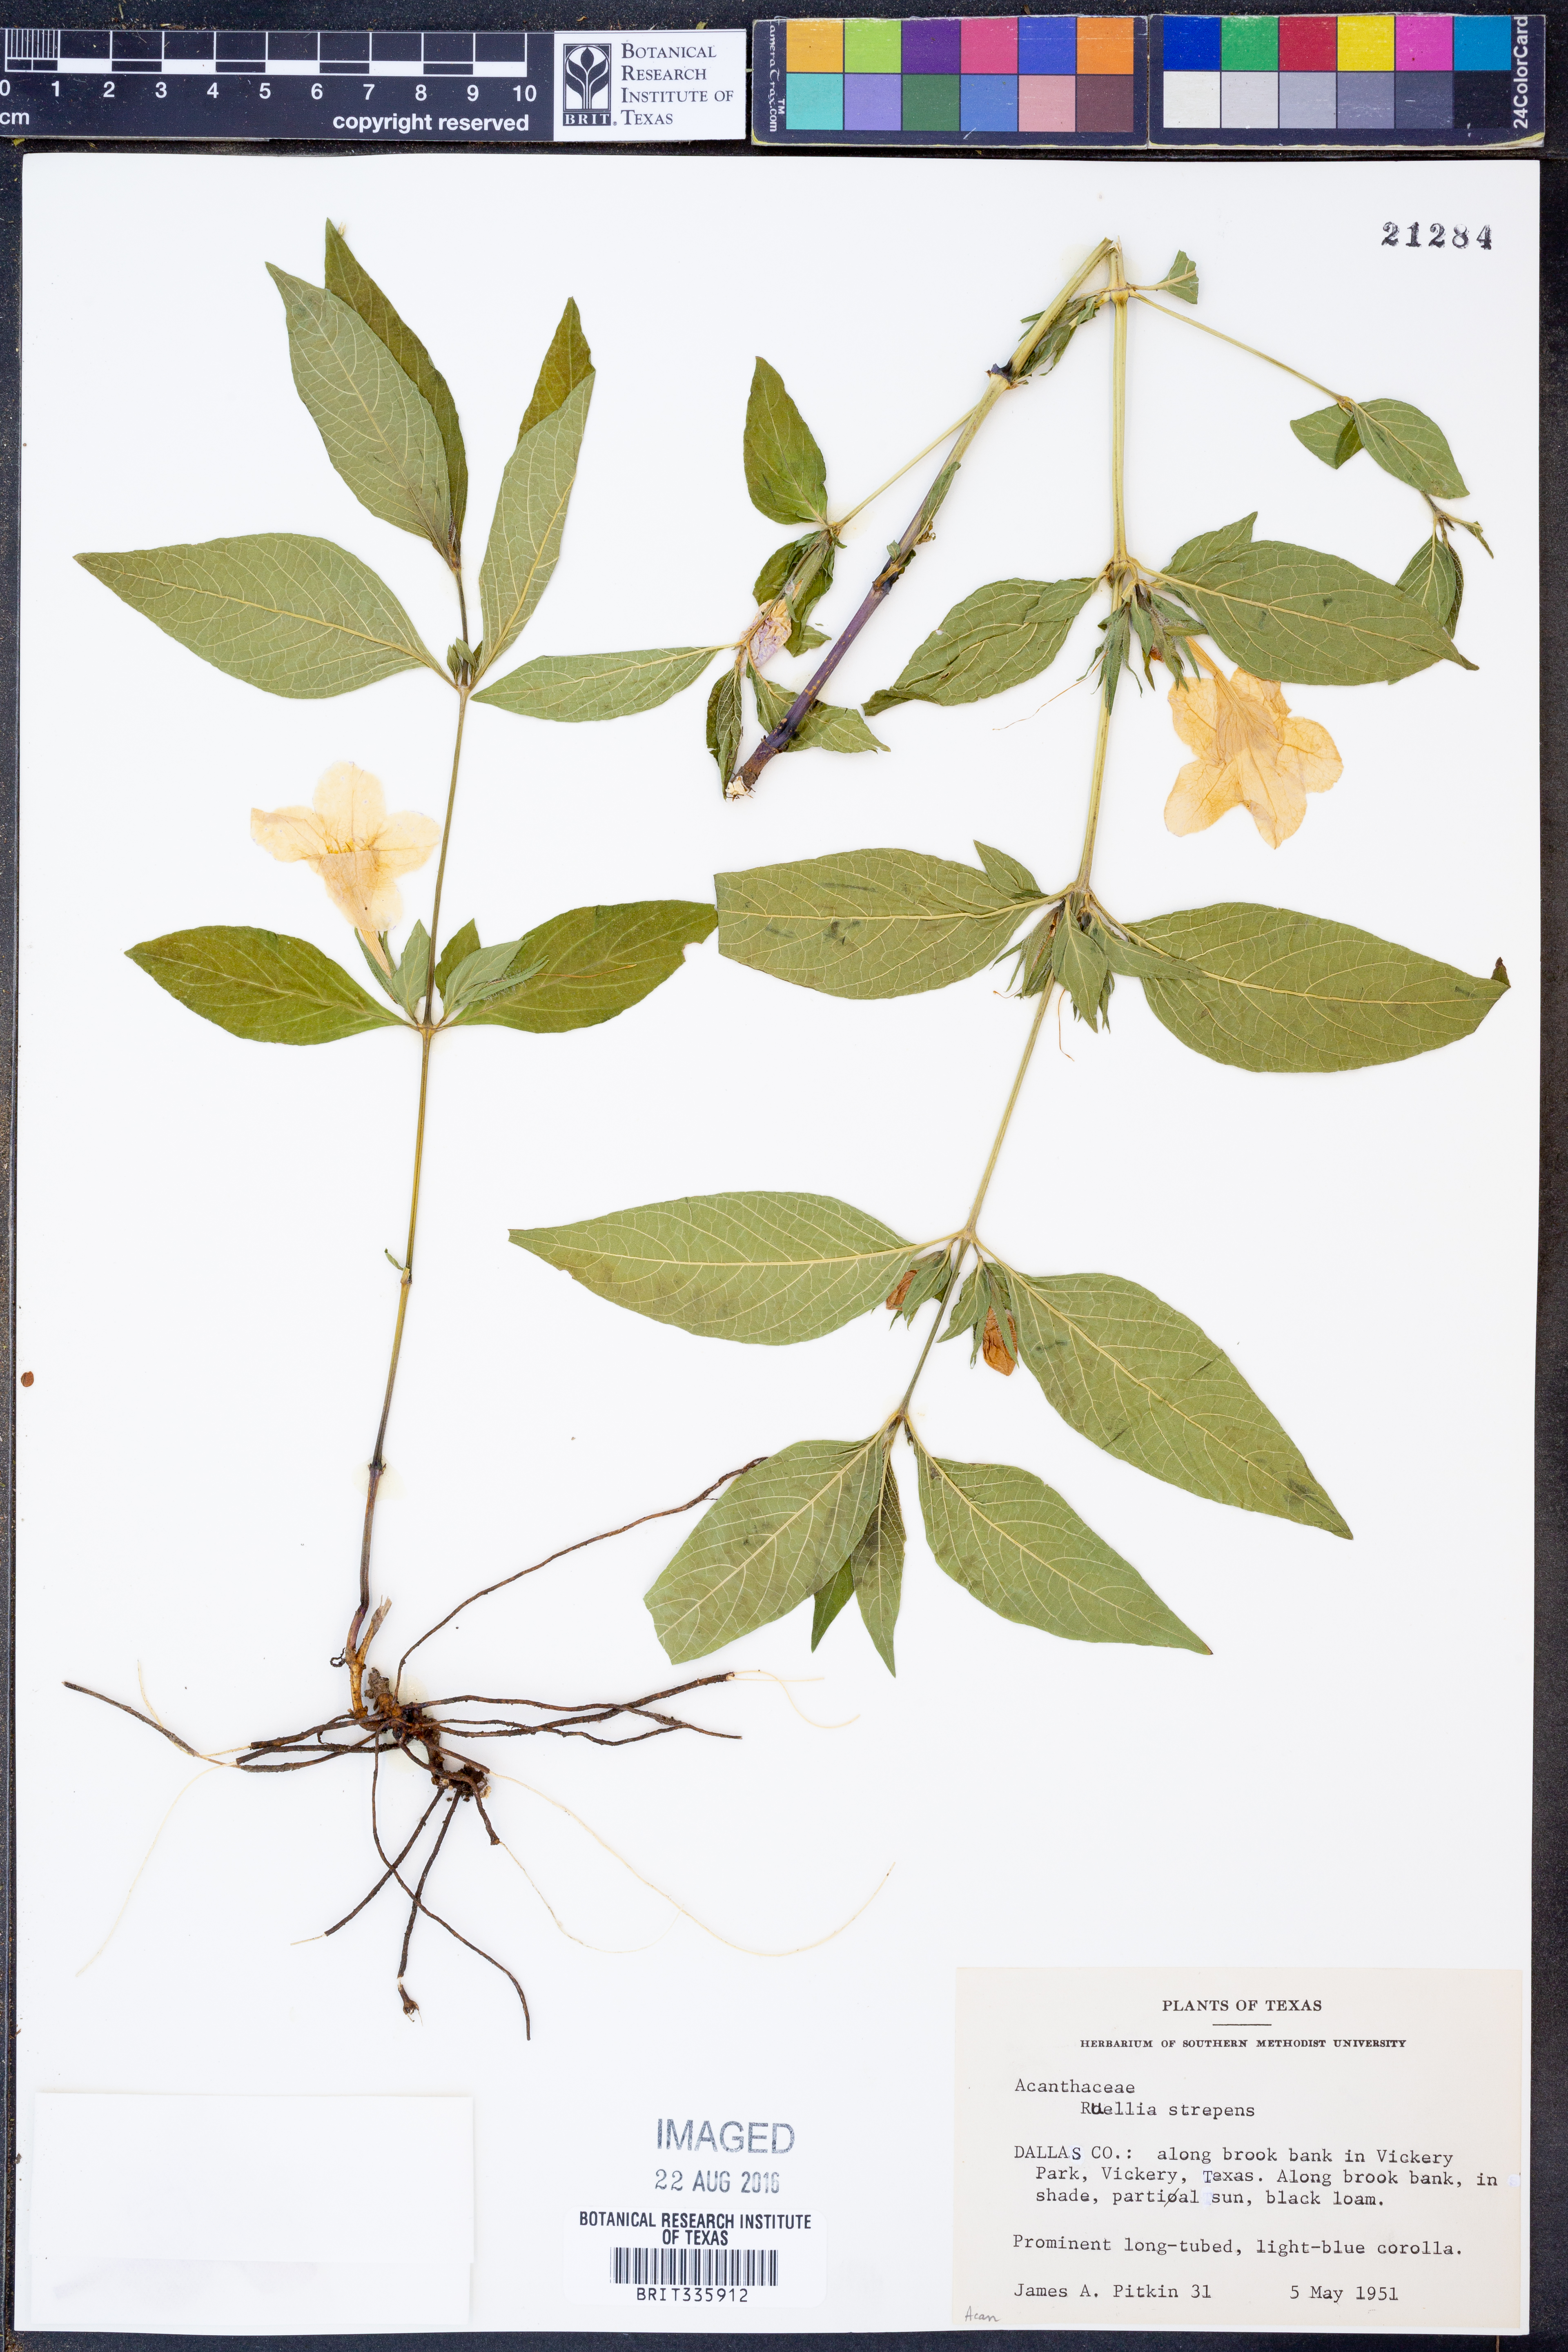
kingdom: Plantae
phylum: Tracheophyta
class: Magnoliopsida
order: Lamiales
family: Acanthaceae
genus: Ruellia
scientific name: Ruellia strepens
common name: Limestone wild petunia
